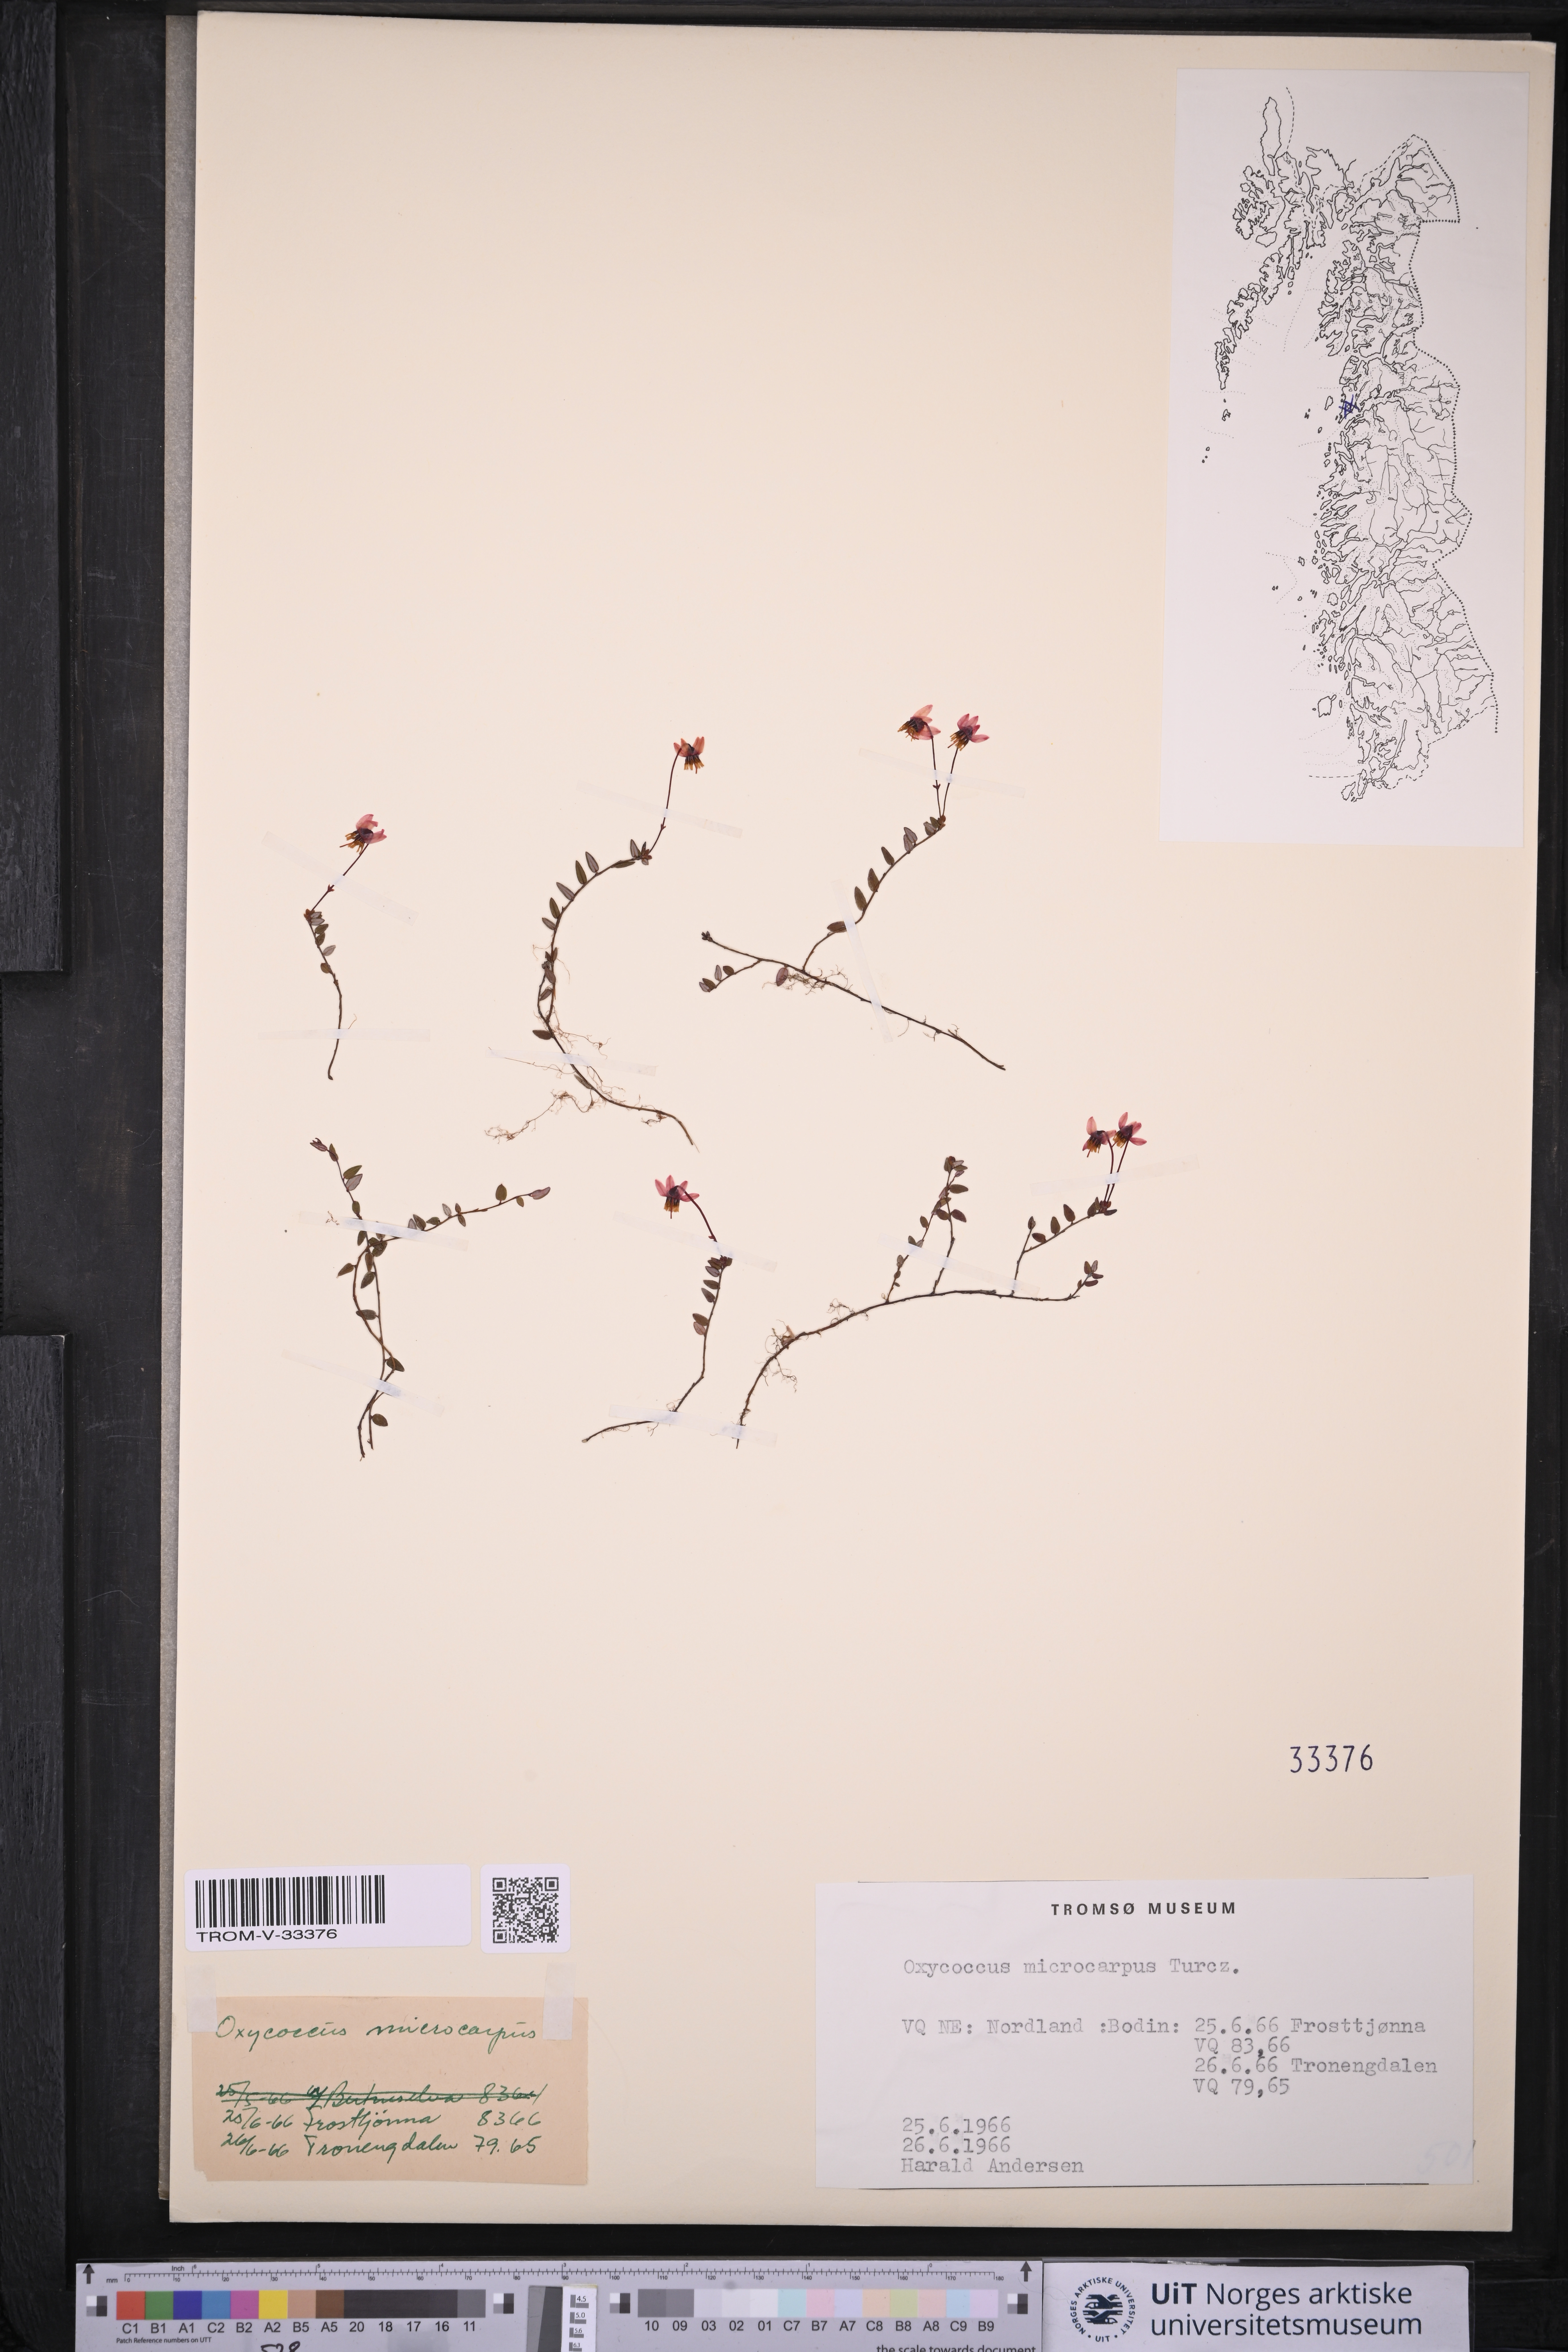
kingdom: Plantae
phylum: Tracheophyta
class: Magnoliopsida
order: Ericales
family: Ericaceae
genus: Vaccinium
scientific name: Vaccinium microcarpum
